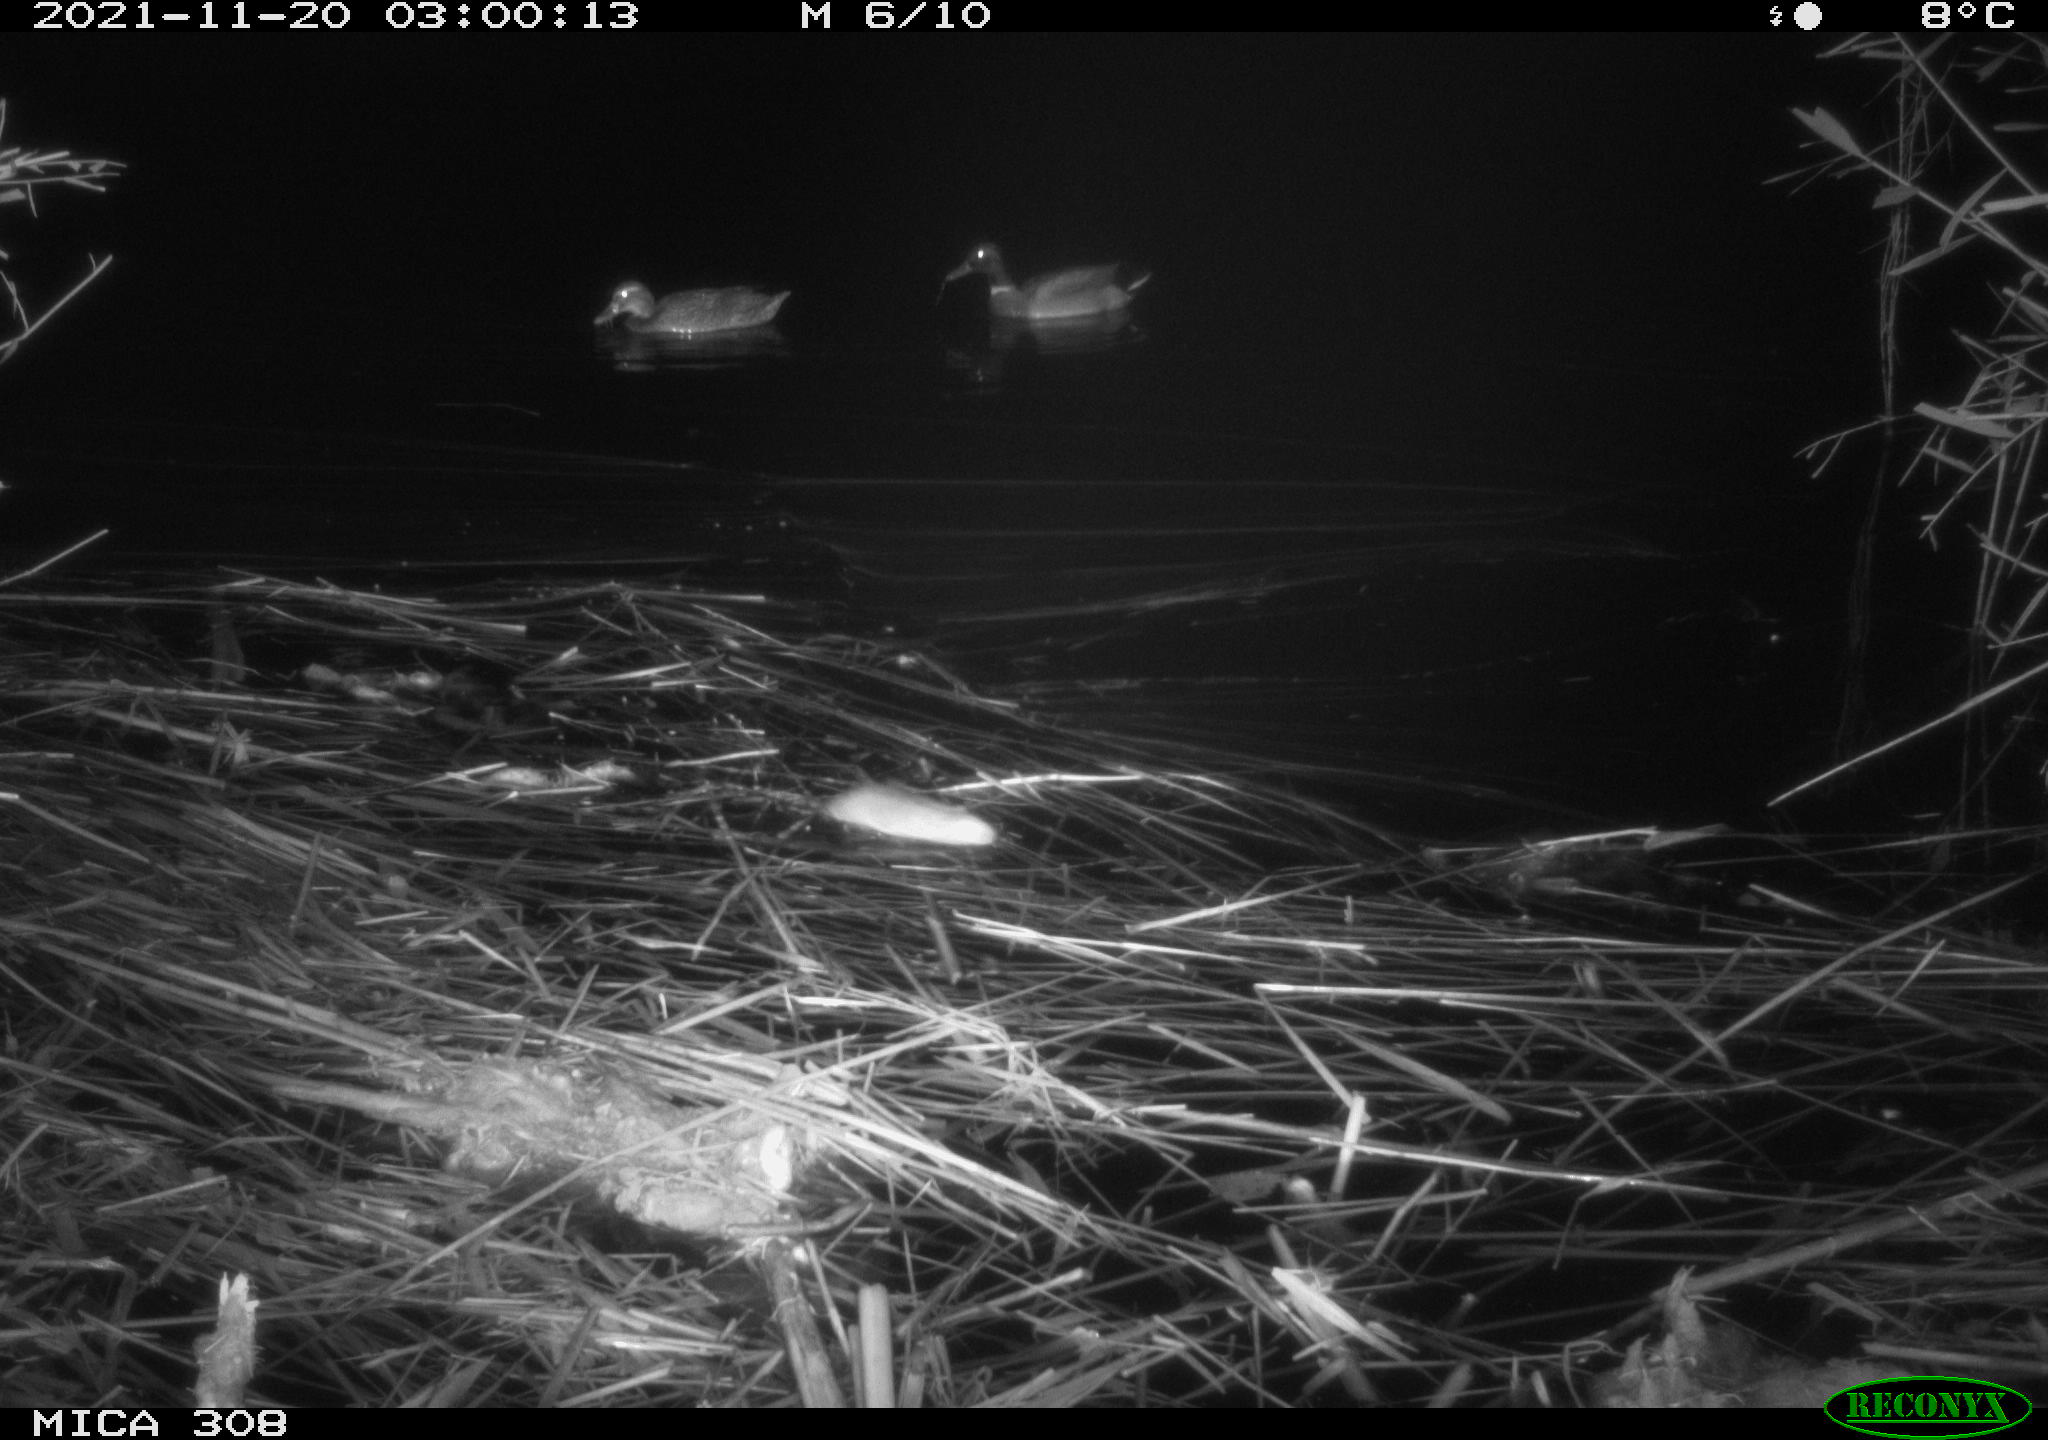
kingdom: Animalia
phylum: Chordata
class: Aves
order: Anseriformes
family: Anatidae
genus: Anas
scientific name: Anas platyrhynchos
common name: Mallard
